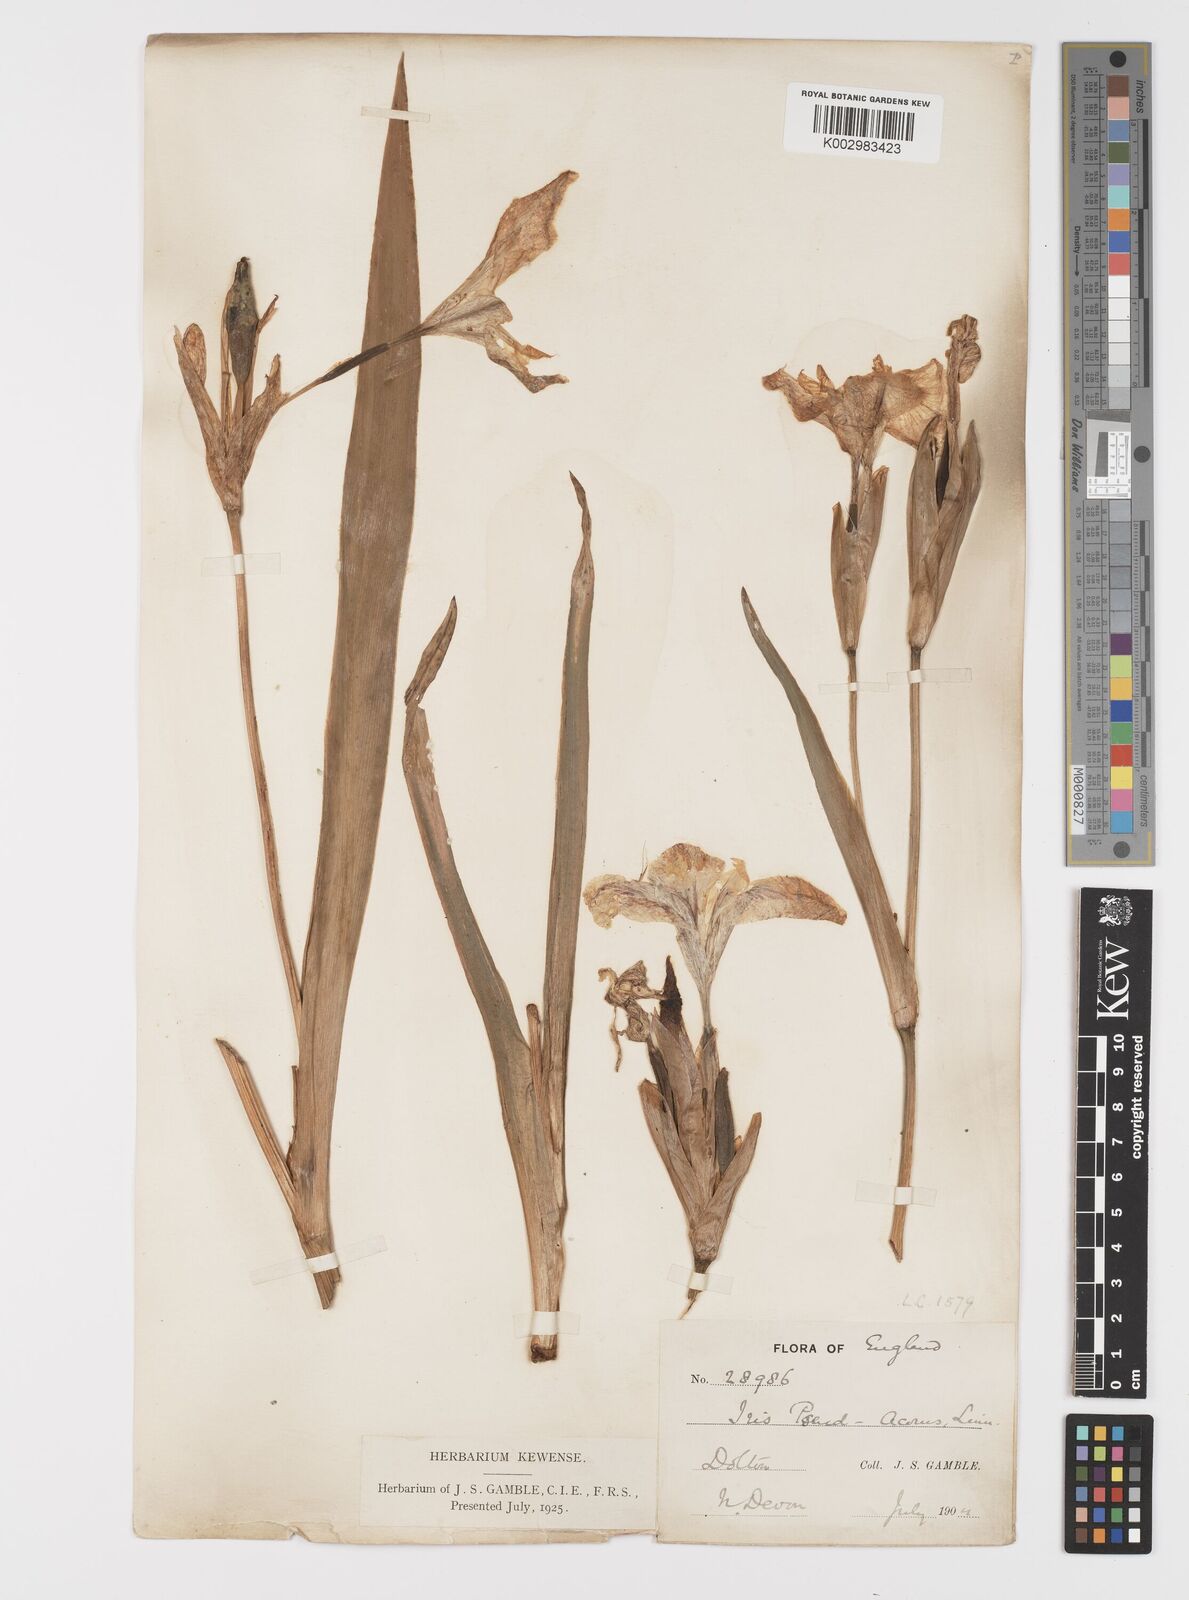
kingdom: Plantae
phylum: Tracheophyta
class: Liliopsida
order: Asparagales
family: Iridaceae
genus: Iris
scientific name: Iris pseudacorus
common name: Yellow flag
